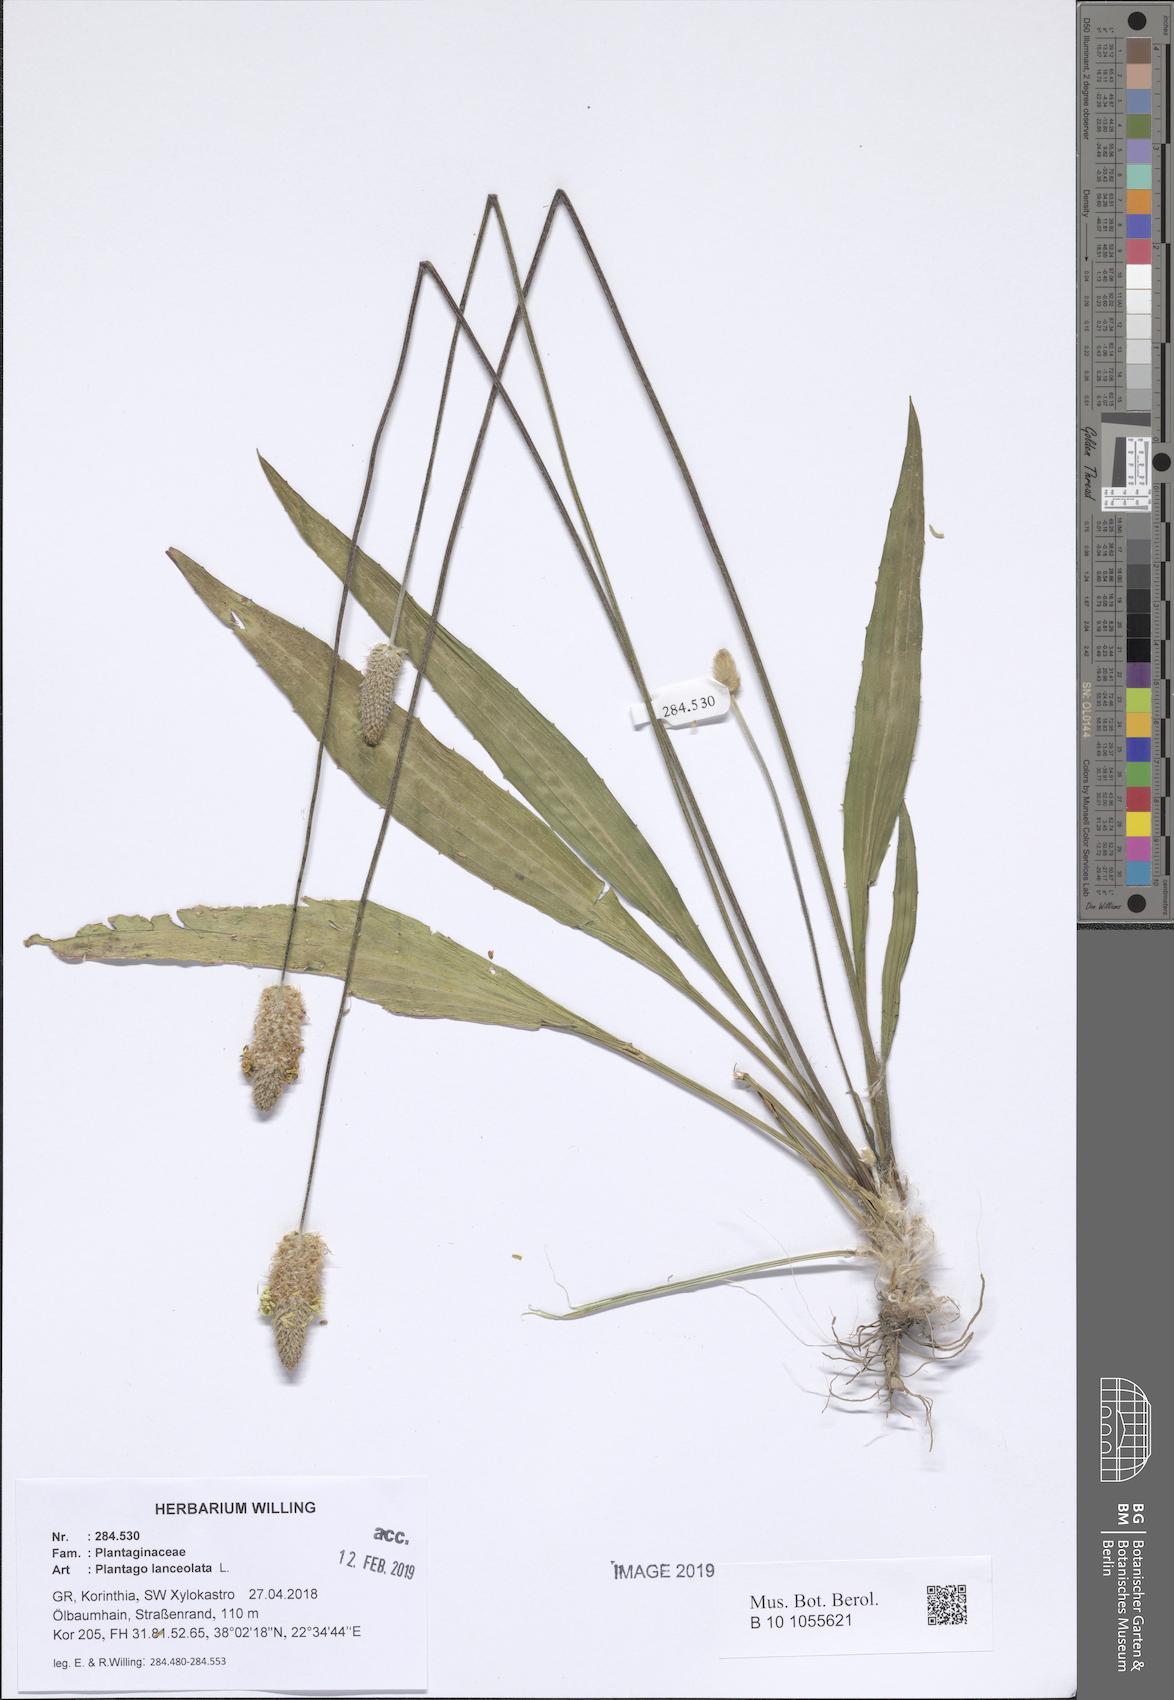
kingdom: Plantae
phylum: Tracheophyta
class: Magnoliopsida
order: Lamiales
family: Plantaginaceae
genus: Plantago
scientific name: Plantago lanceolata
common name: Ribwort plantain
